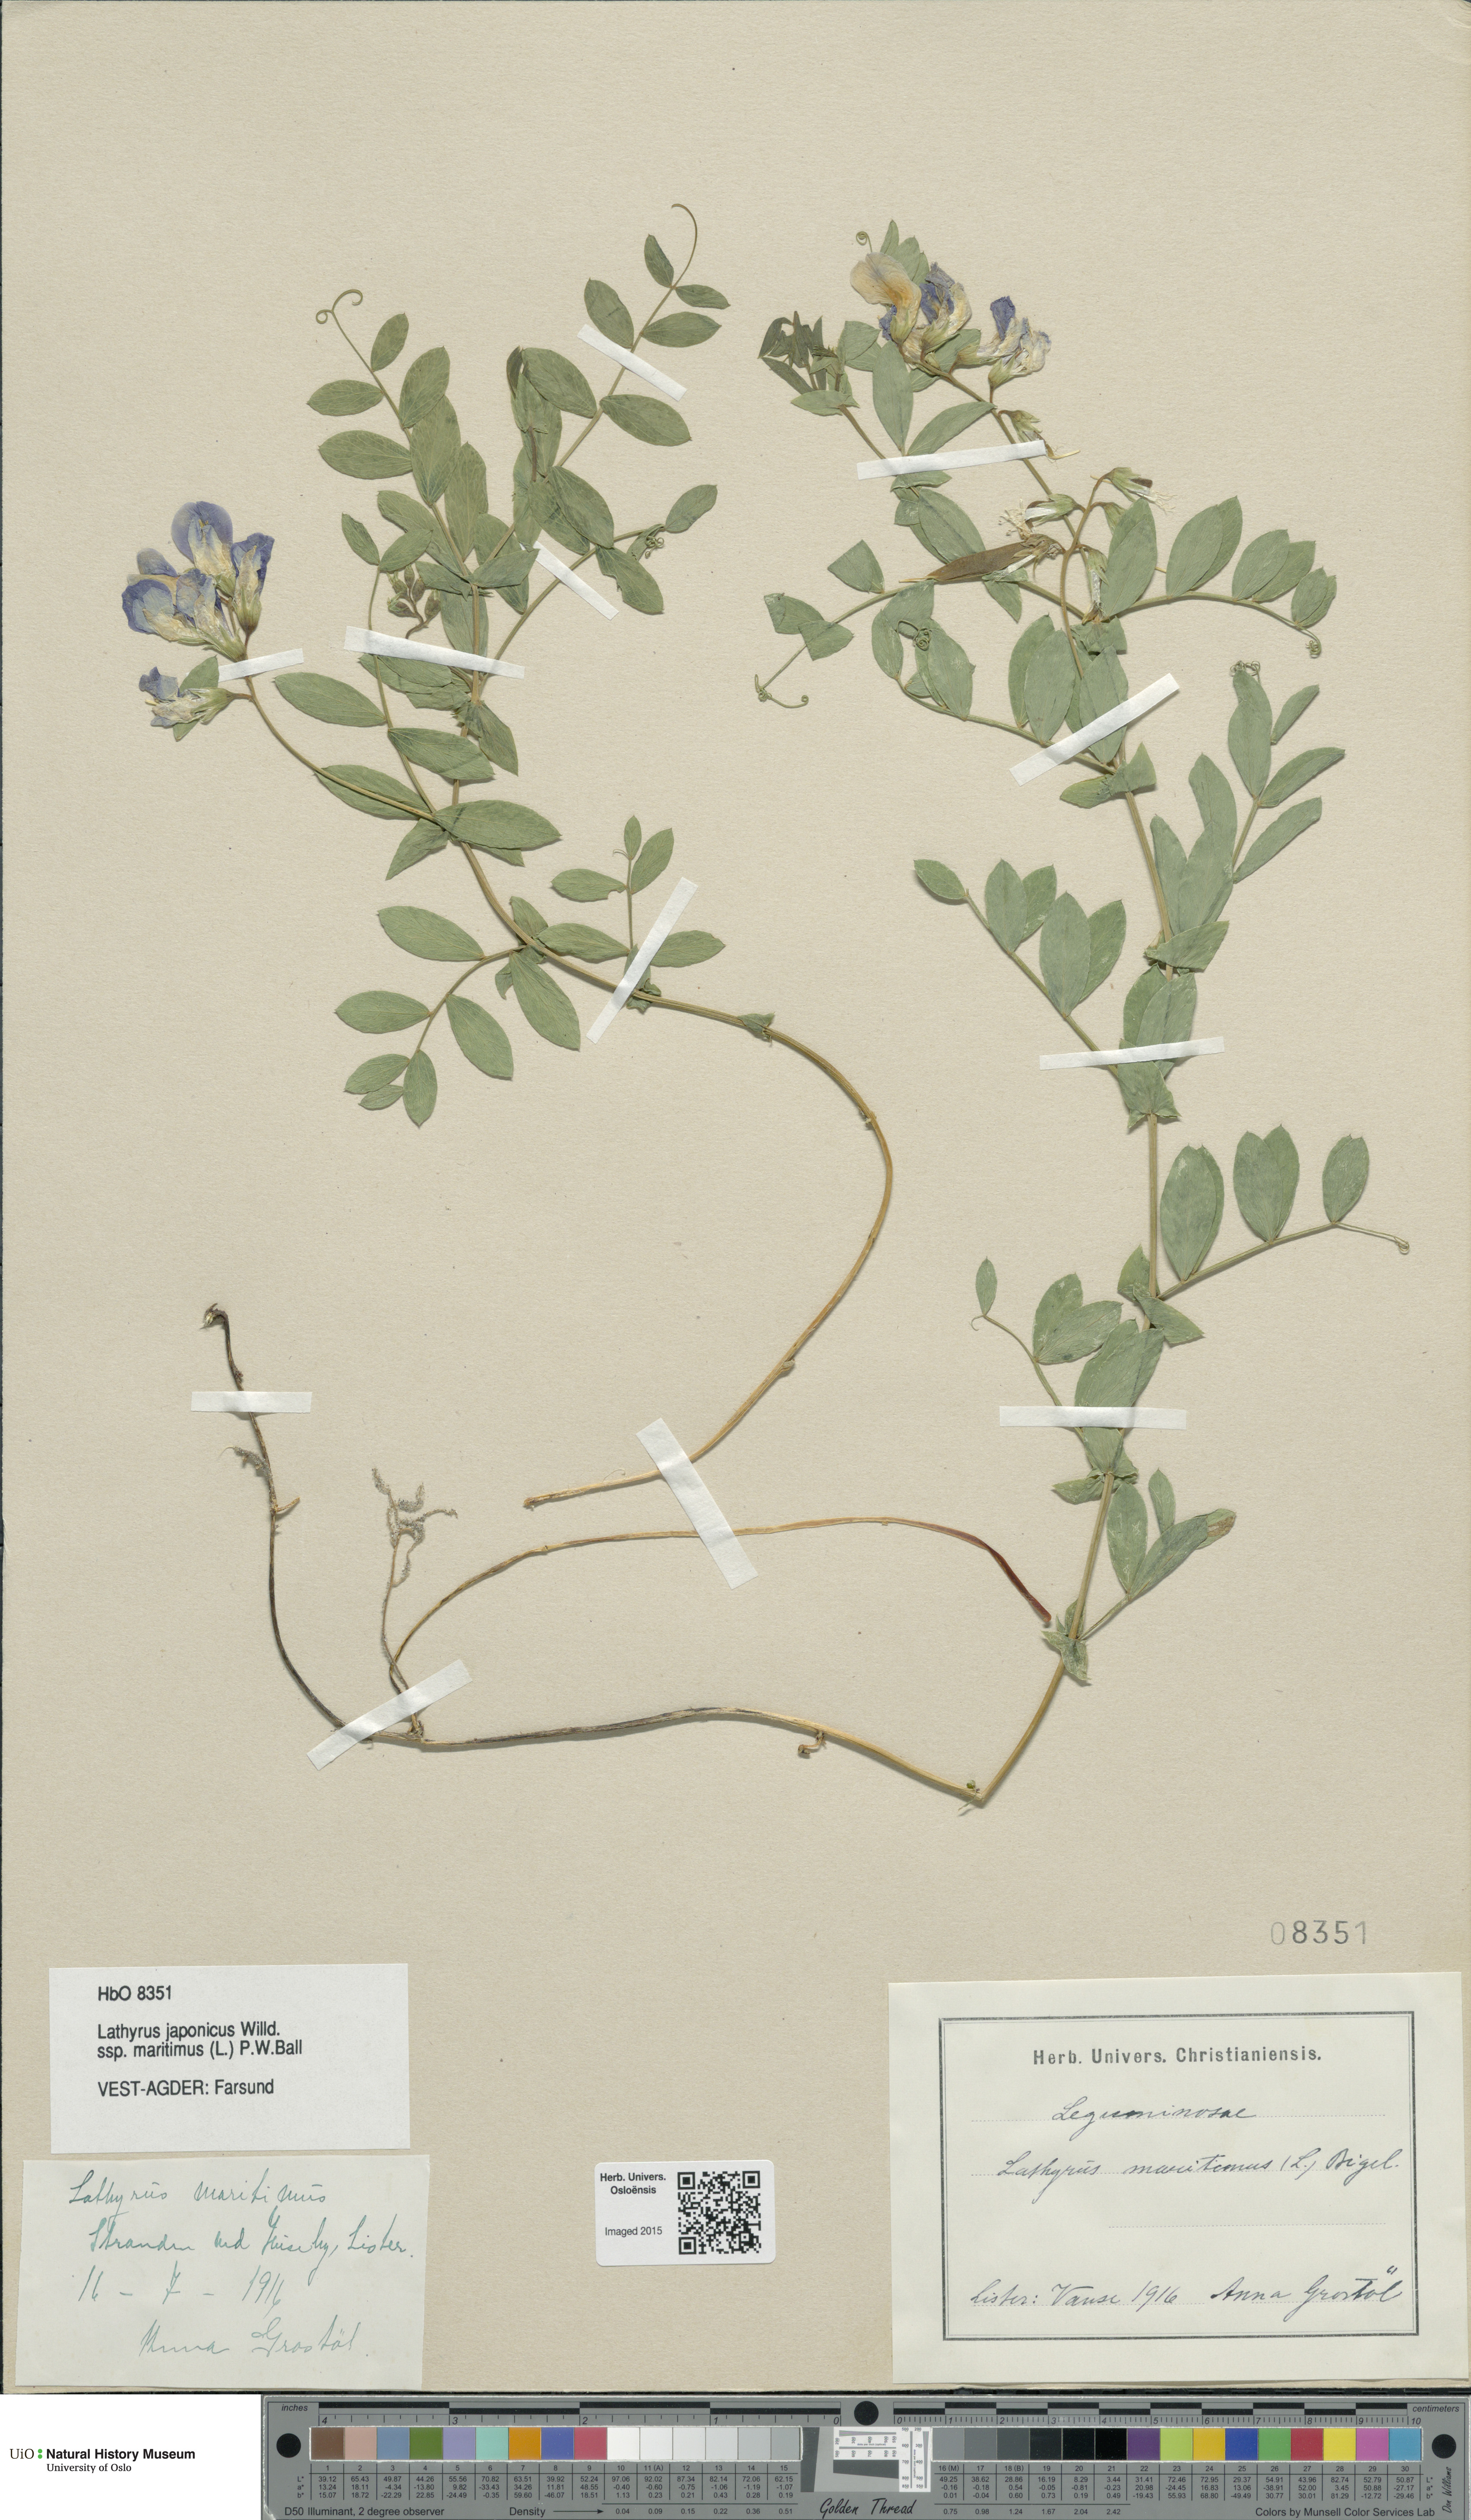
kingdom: Plantae
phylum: Tracheophyta
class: Magnoliopsida
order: Fabales
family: Fabaceae
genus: Lathyrus
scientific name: Lathyrus japonicus
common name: Sea pea
